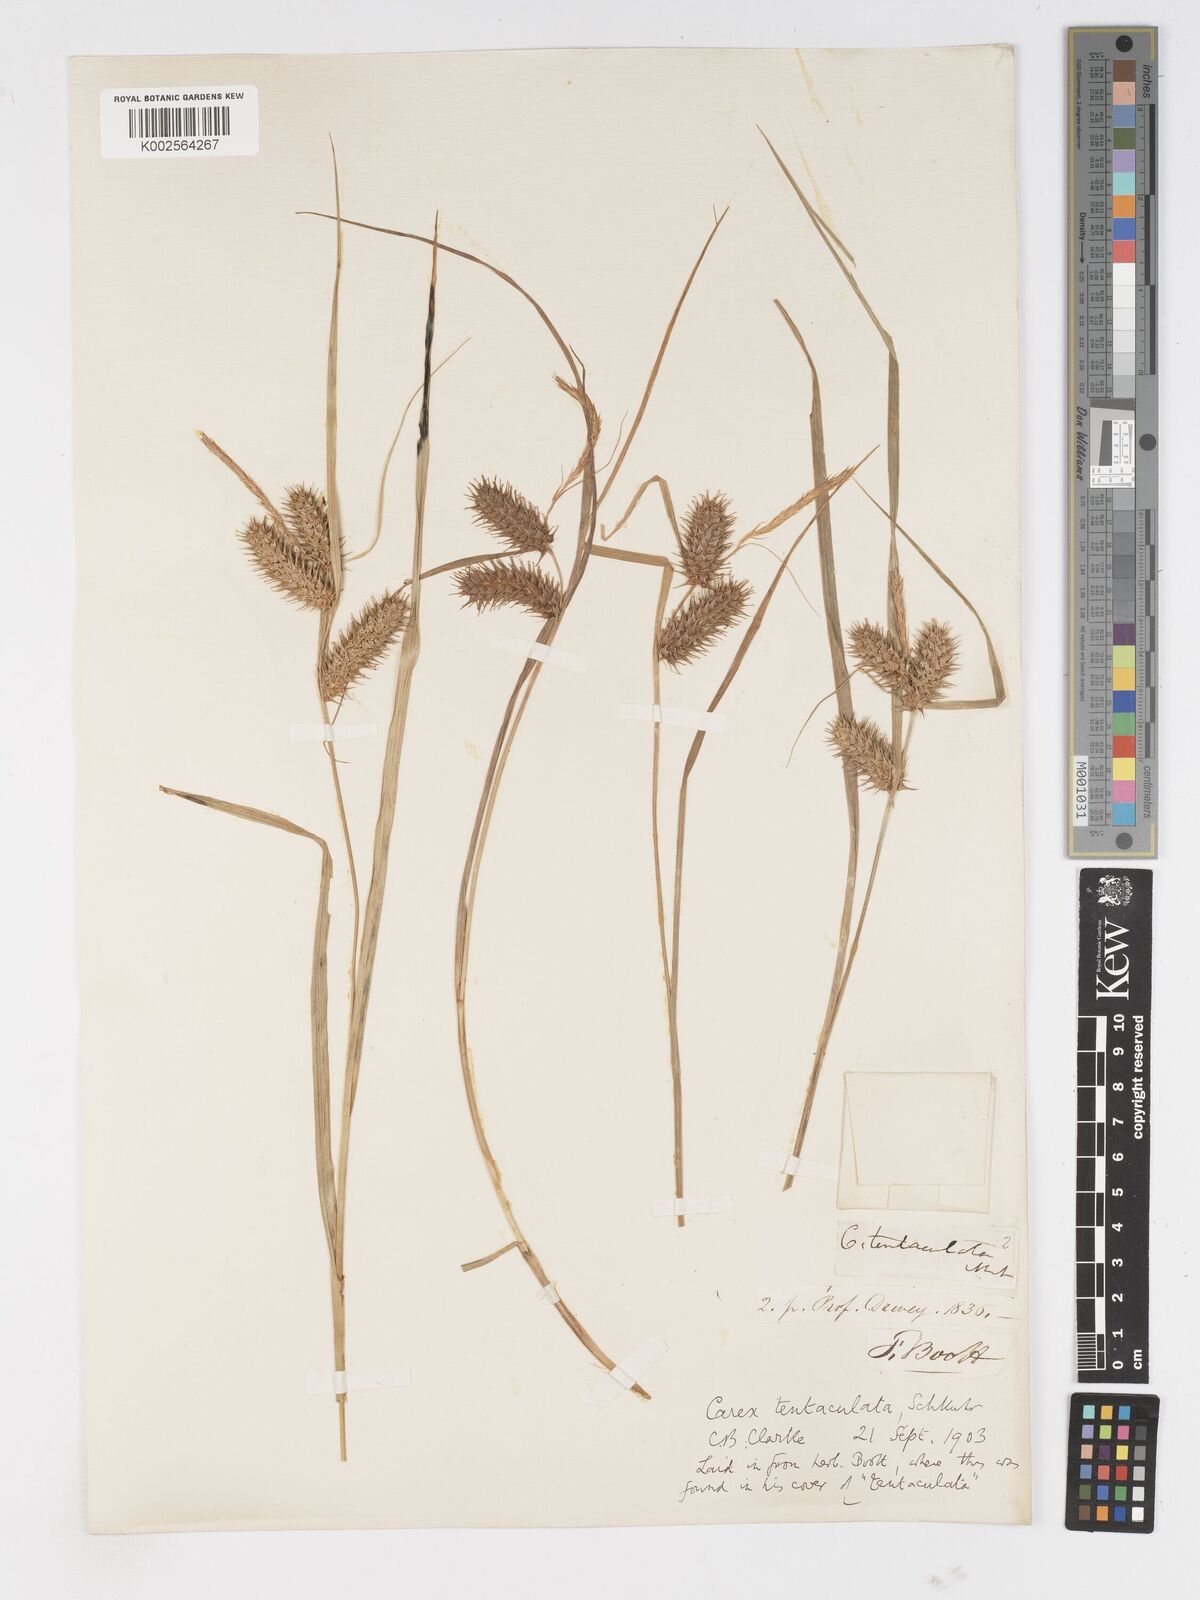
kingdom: Plantae
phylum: Tracheophyta
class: Liliopsida
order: Poales
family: Cyperaceae
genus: Carex
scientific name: Carex lurida
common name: Sallow sedge
